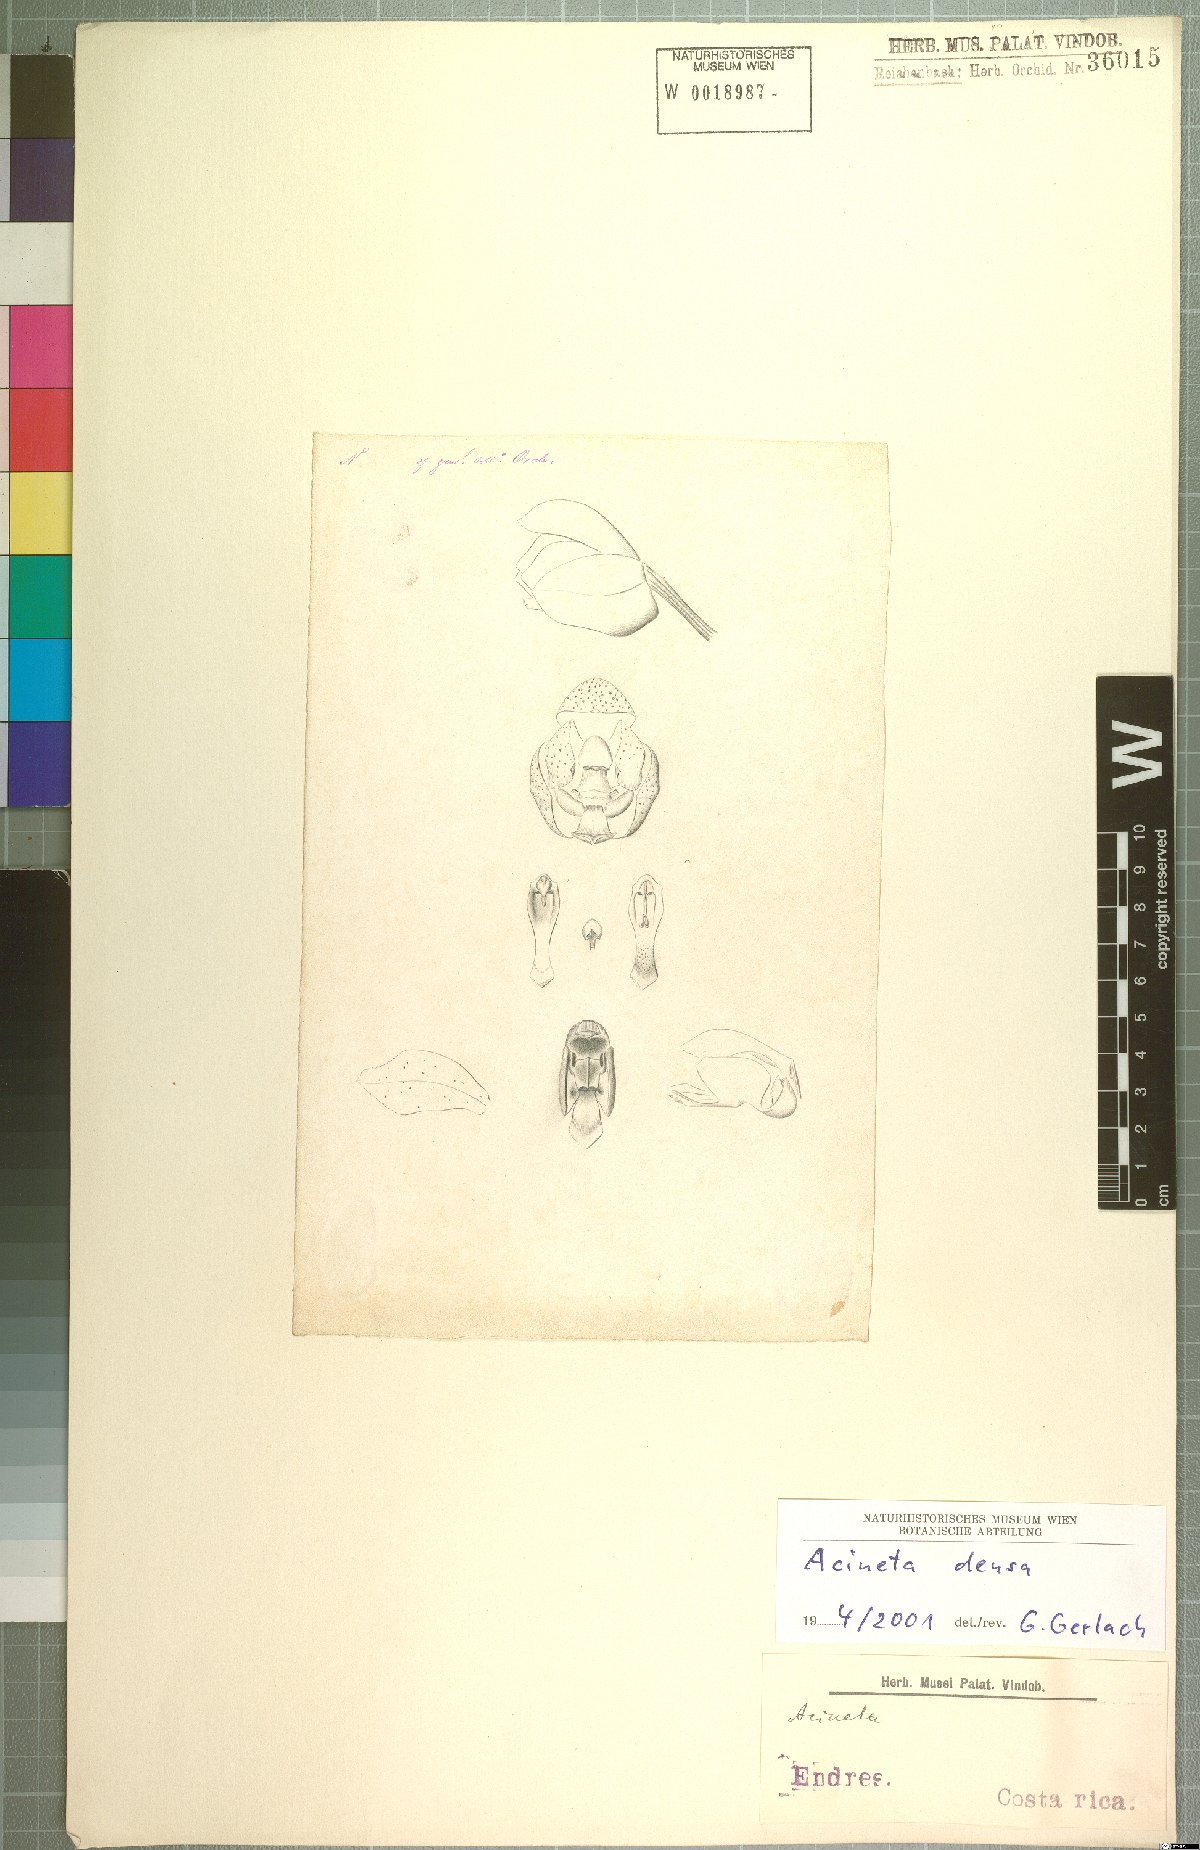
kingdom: Plantae
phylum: Tracheophyta
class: Liliopsida
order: Asparagales
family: Orchidaceae
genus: Acineta
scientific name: Acineta densa
